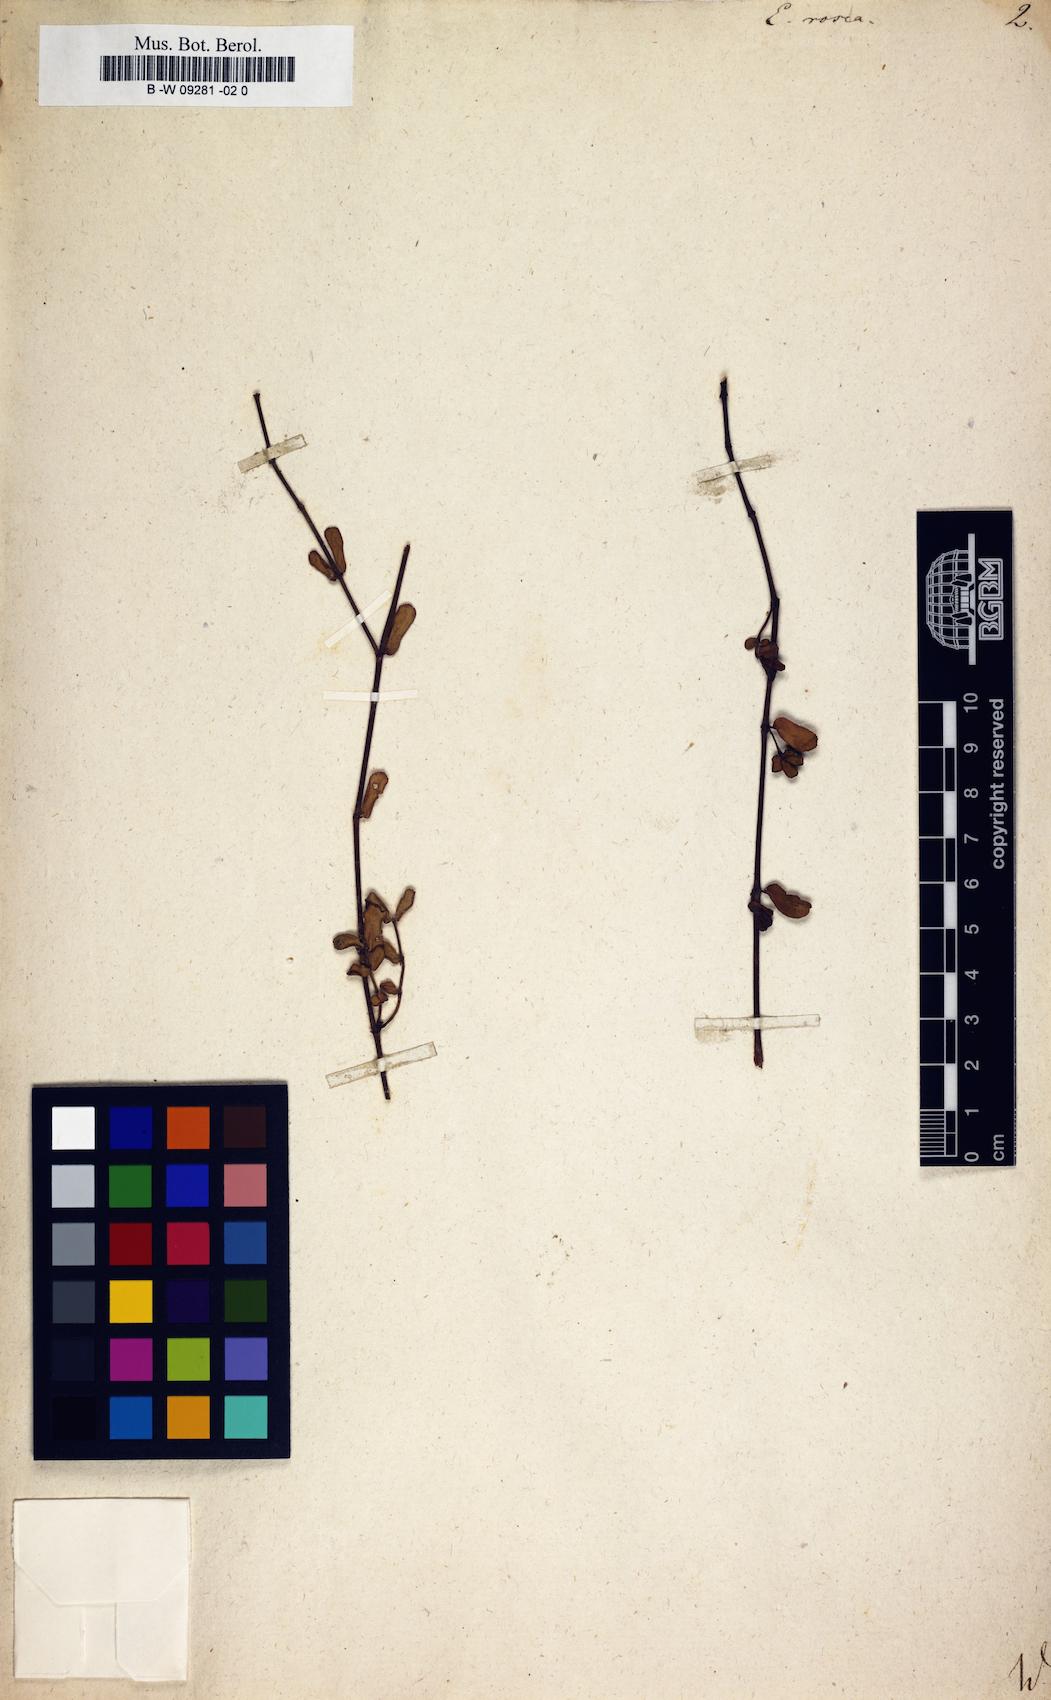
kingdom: Plantae
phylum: Tracheophyta
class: Magnoliopsida
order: Malpighiales
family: Euphorbiaceae
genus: Euphorbia
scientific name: Euphorbia rosea
